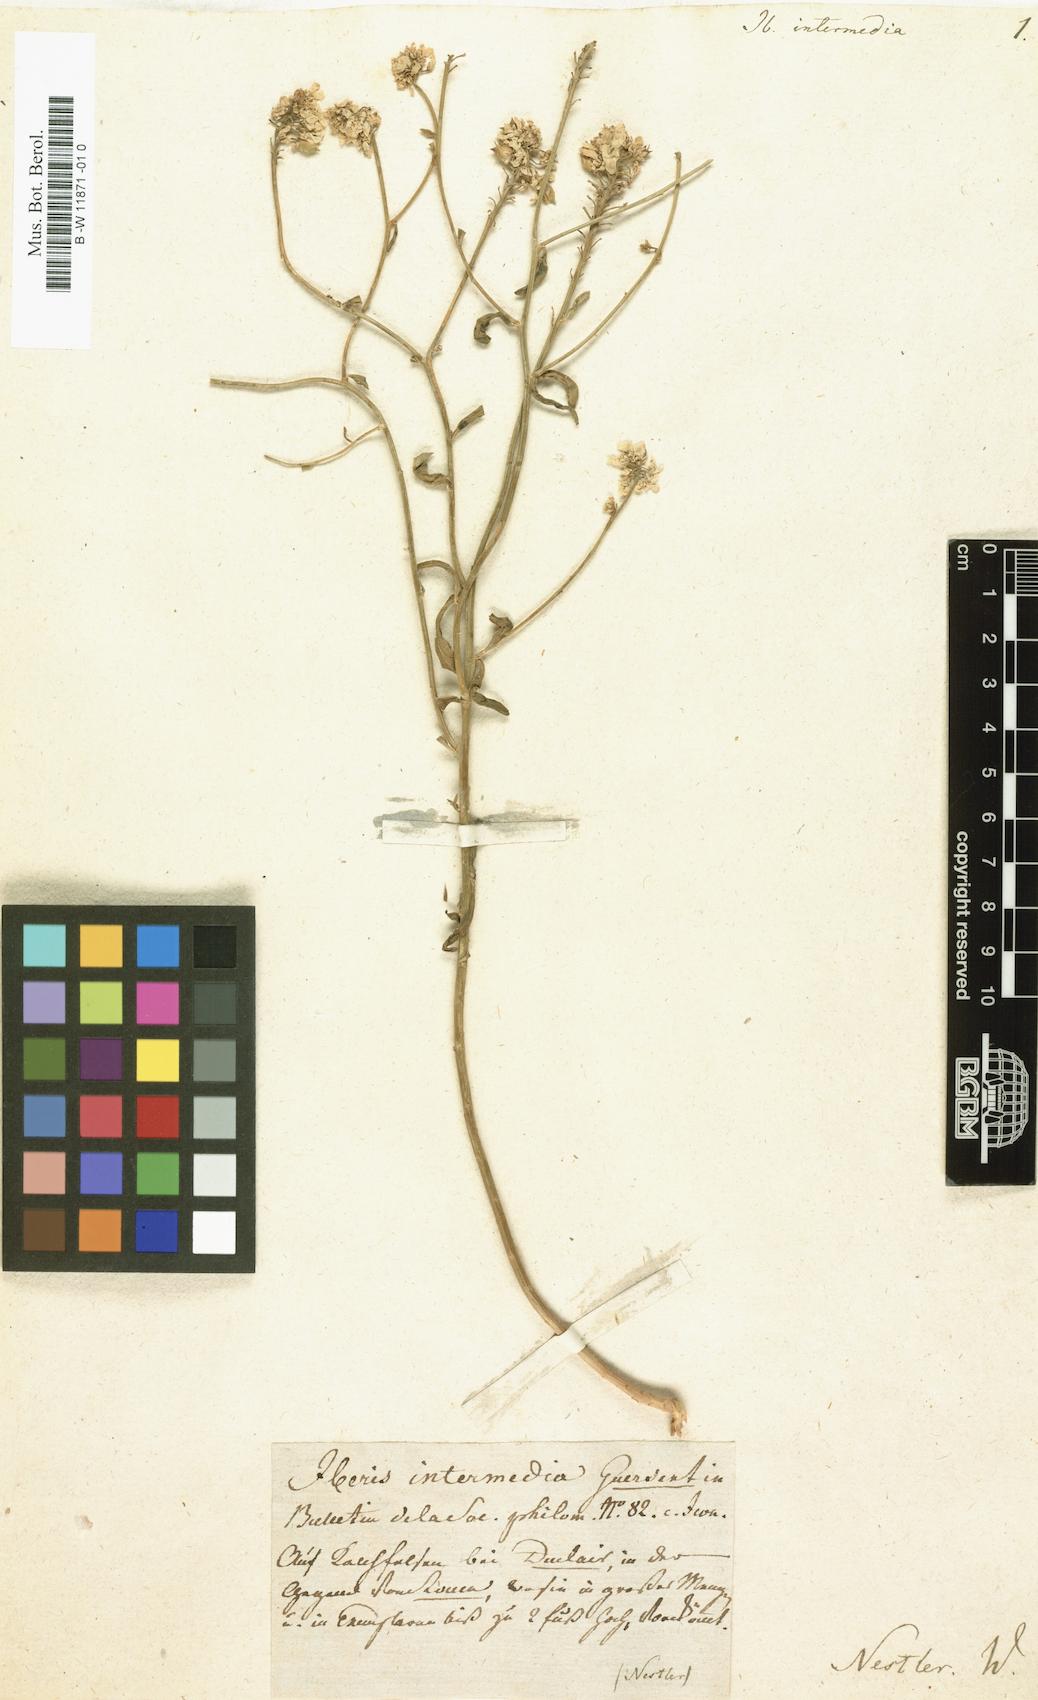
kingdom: Plantae
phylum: Tracheophyta
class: Magnoliopsida
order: Brassicales
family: Brassicaceae
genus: Iberis
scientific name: Iberis linifolia
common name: Candytuft
